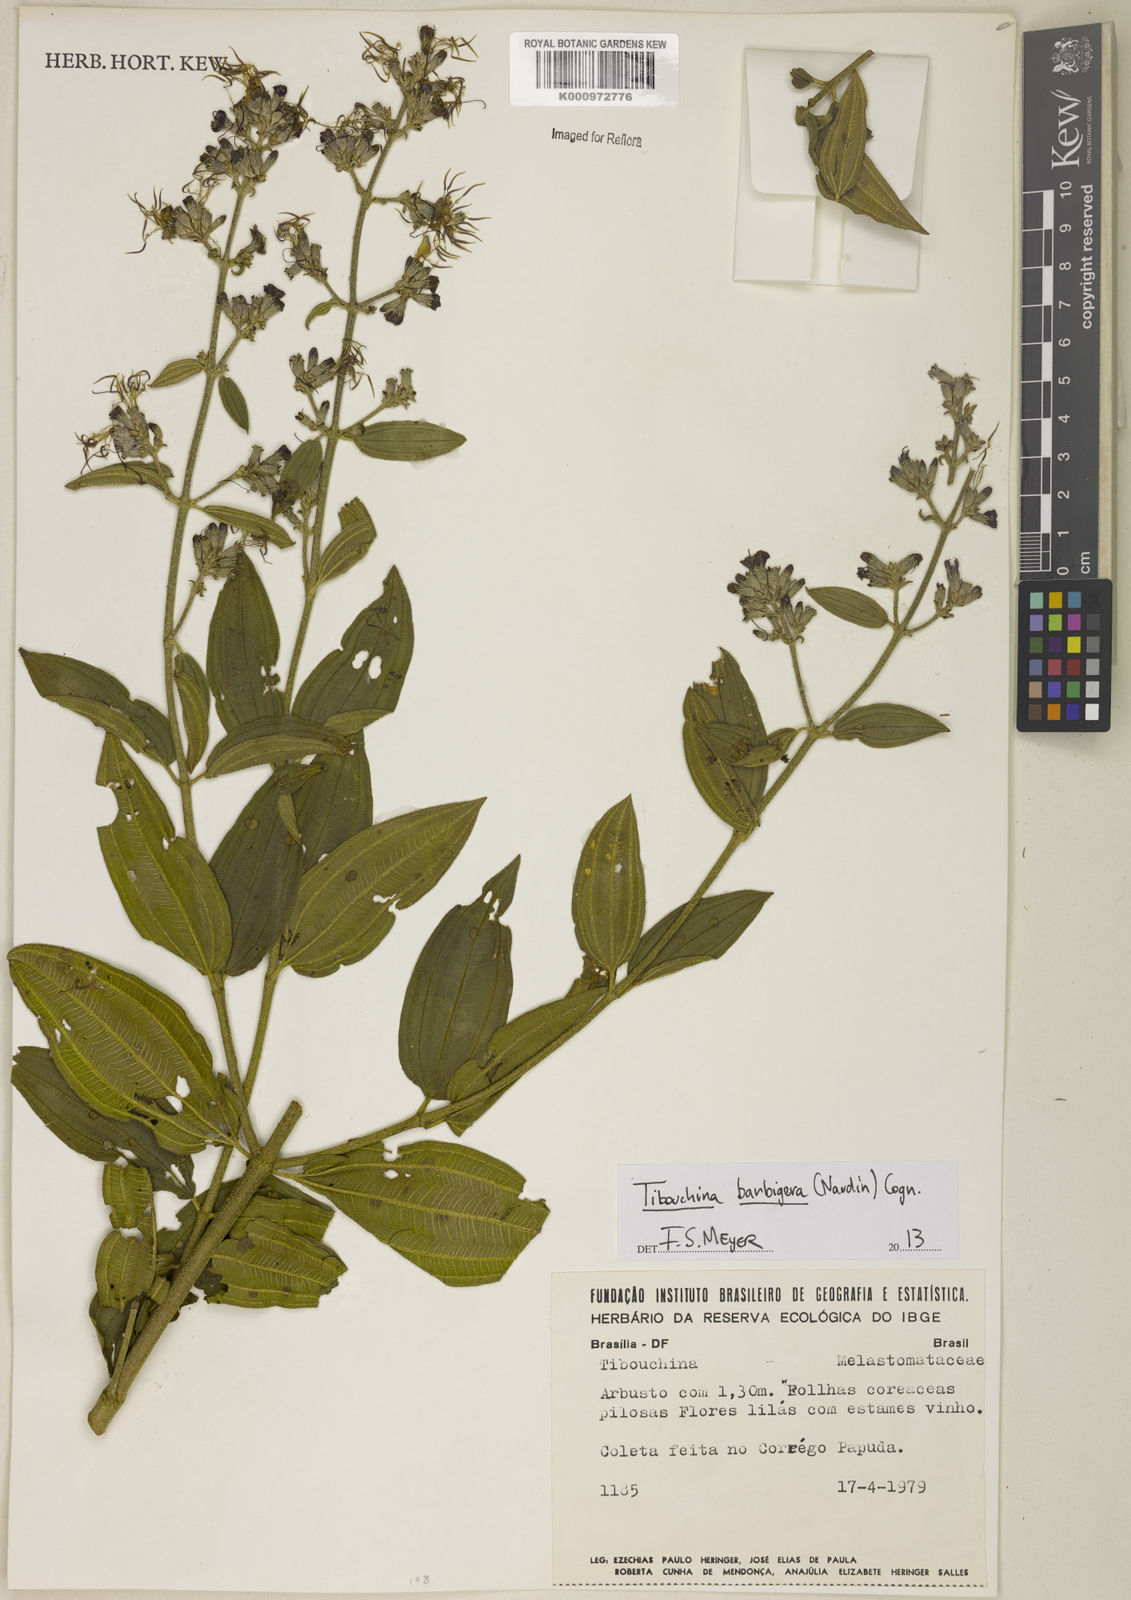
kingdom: Plantae
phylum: Tracheophyta
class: Magnoliopsida
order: Myrtales
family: Melastomataceae
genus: Pleroma
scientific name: Pleroma barbigerum
